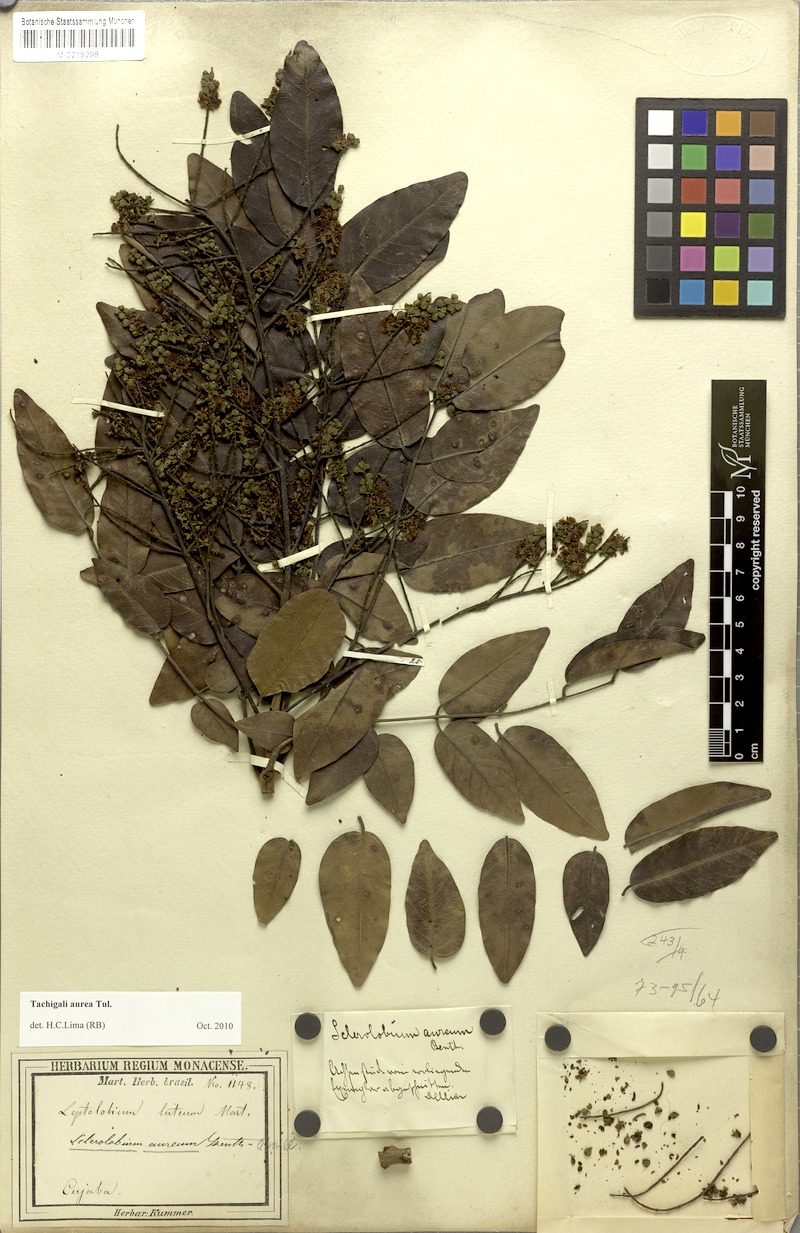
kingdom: Plantae
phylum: Tracheophyta
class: Magnoliopsida
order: Fabales
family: Fabaceae
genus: Tachigali
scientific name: Tachigali aurea
